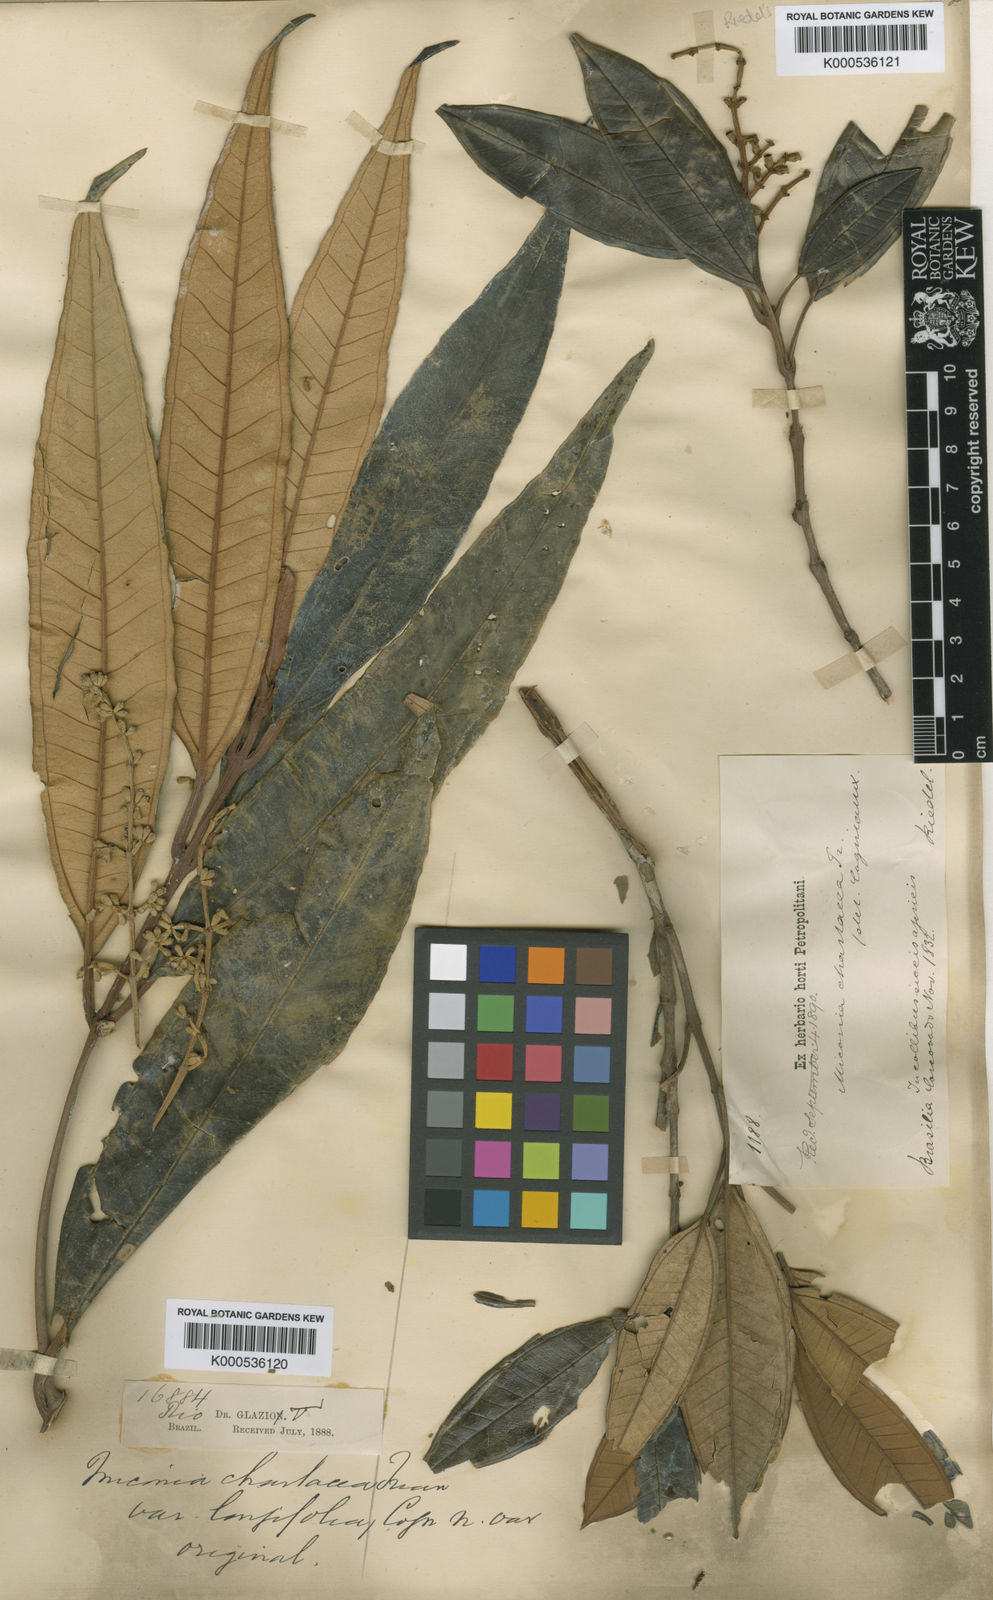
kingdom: Plantae
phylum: Tracheophyta
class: Magnoliopsida
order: Myrtales
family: Melastomataceae
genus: Miconia
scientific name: Miconia chartacea
